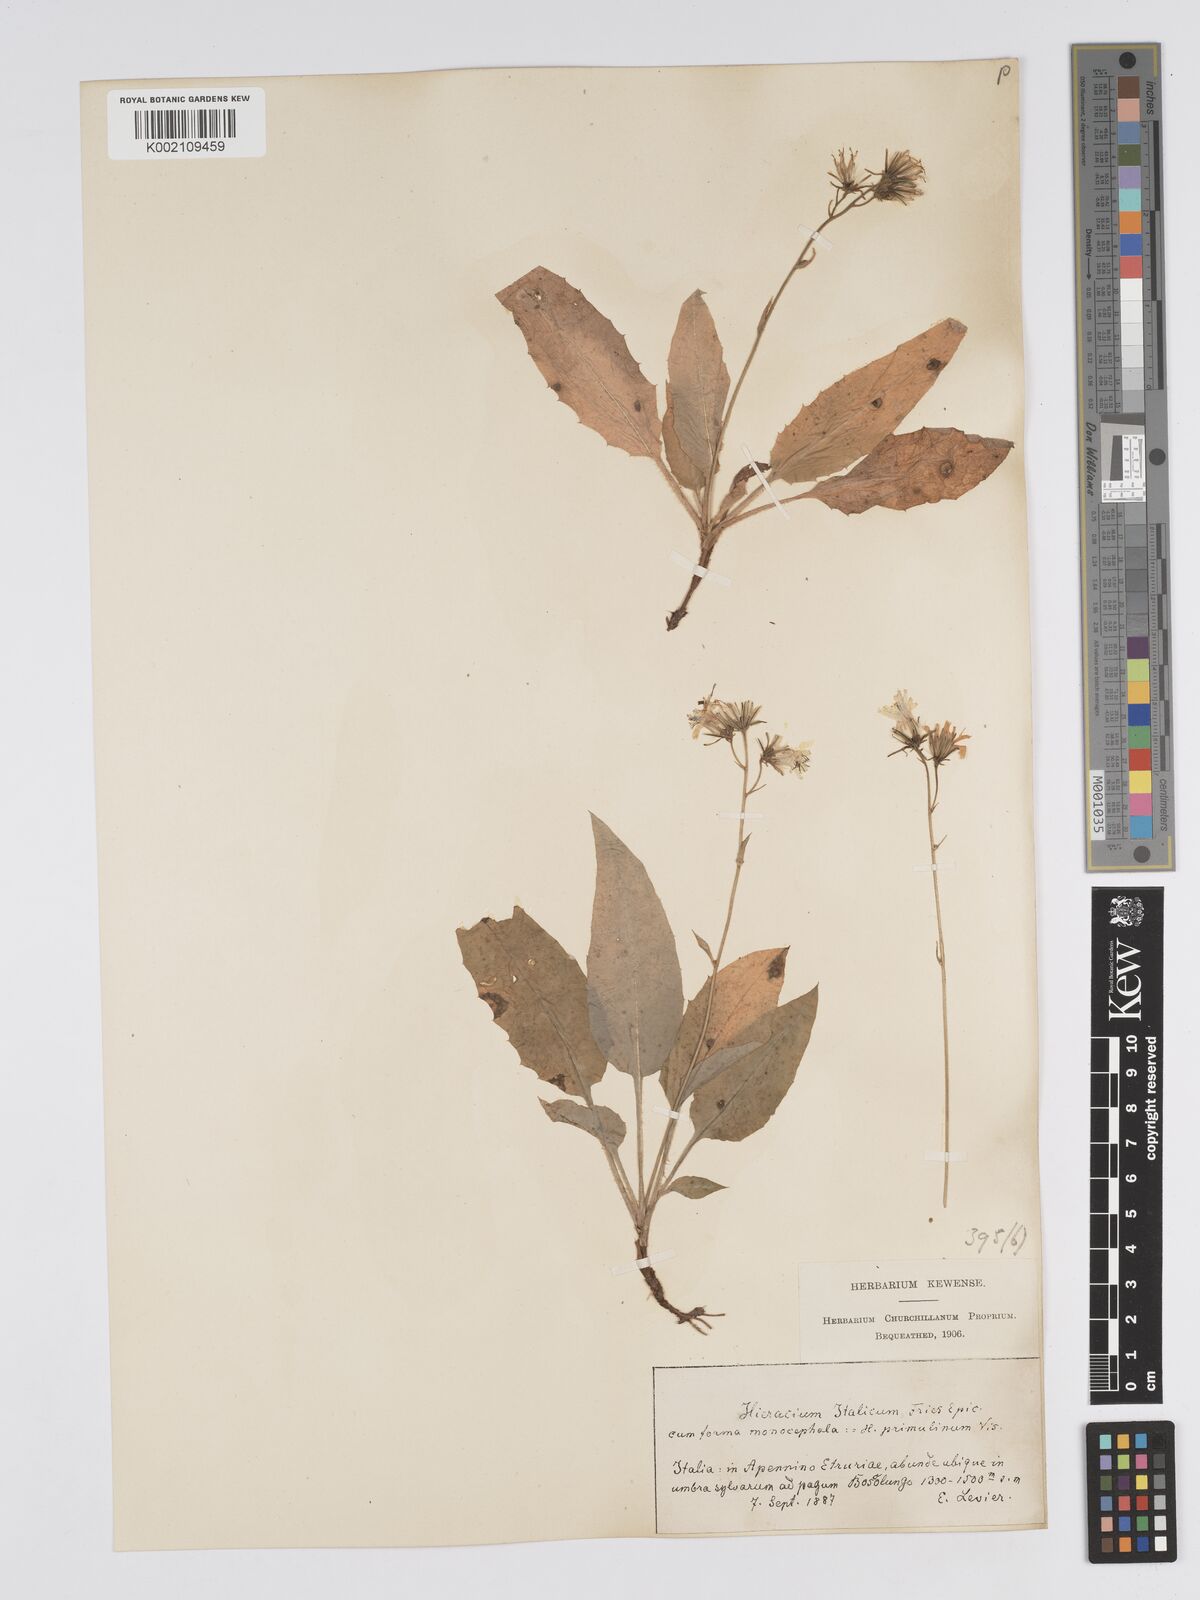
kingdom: Plantae
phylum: Tracheophyta
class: Magnoliopsida
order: Asterales
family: Asteraceae
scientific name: Asteraceae
